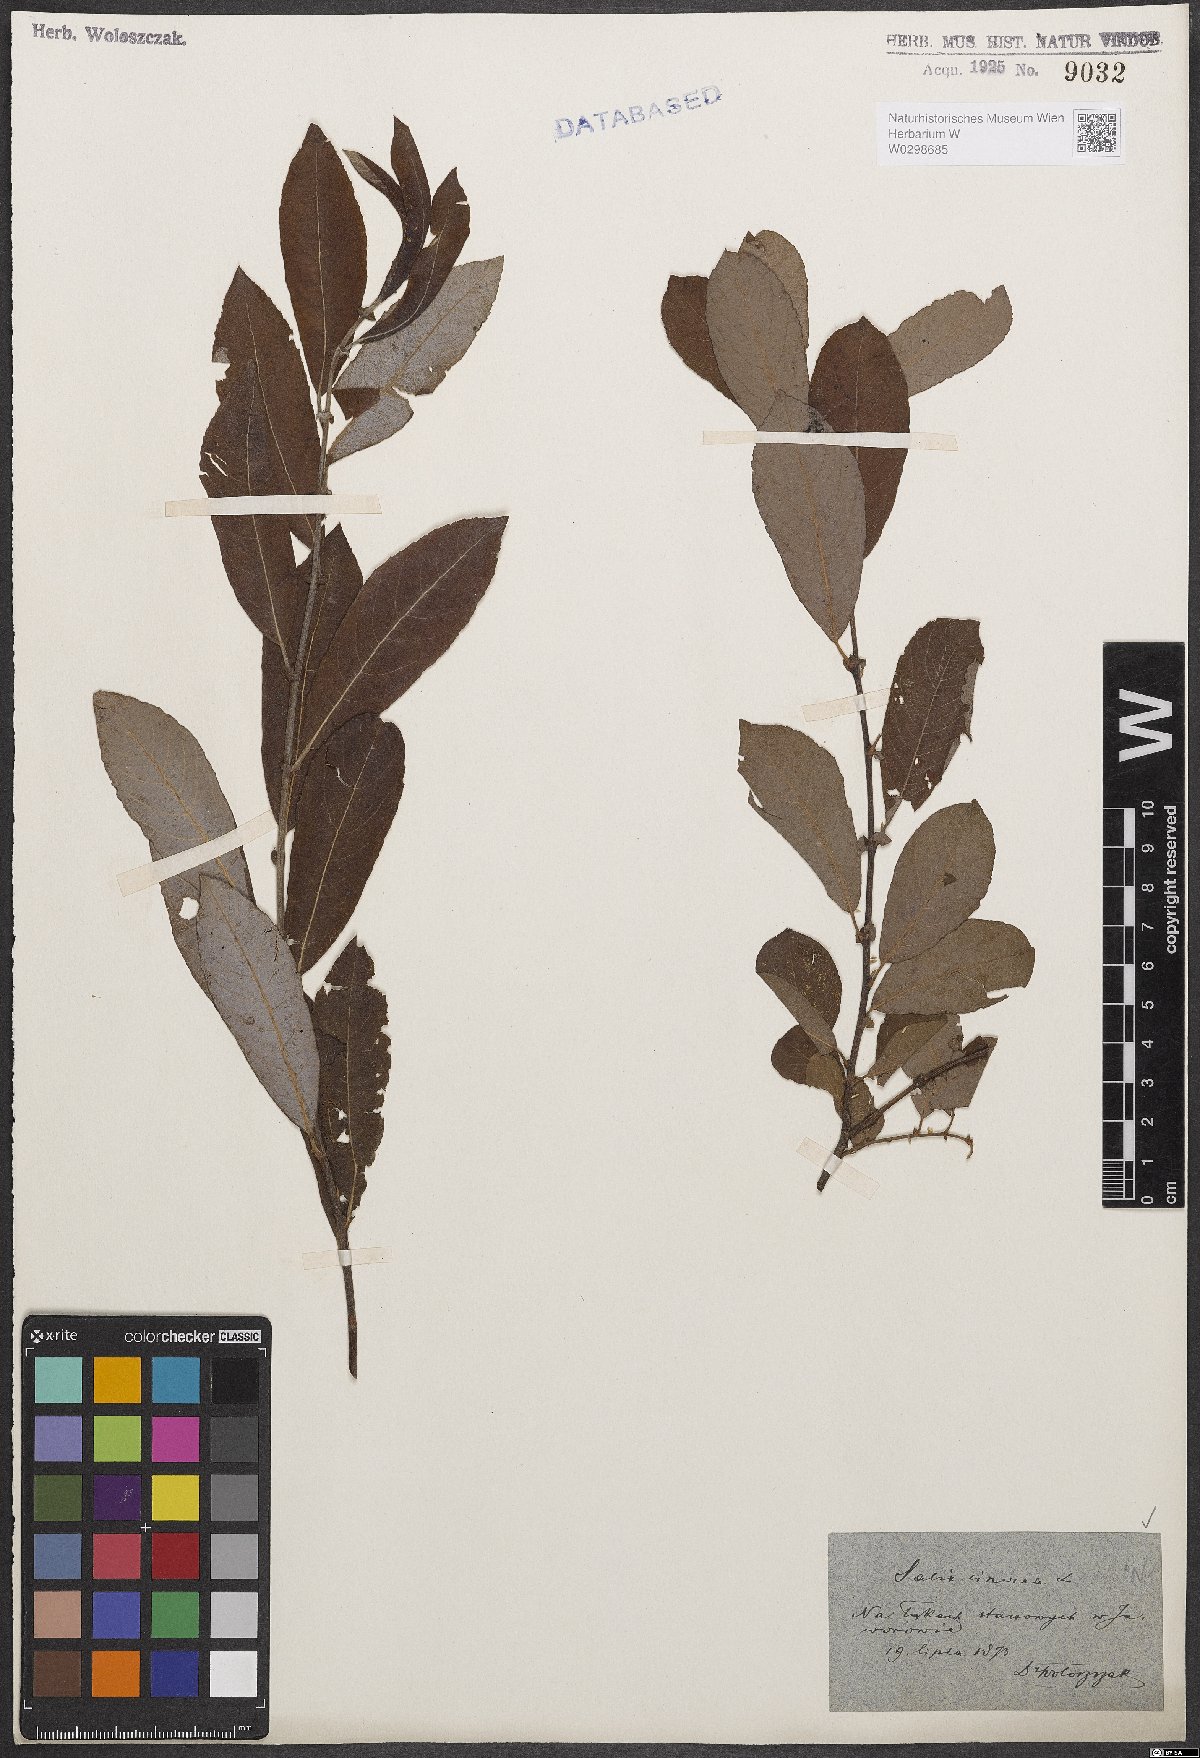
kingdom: Plantae
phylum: Tracheophyta
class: Magnoliopsida
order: Malpighiales
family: Salicaceae
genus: Salix
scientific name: Salix cinerea
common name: Common sallow
